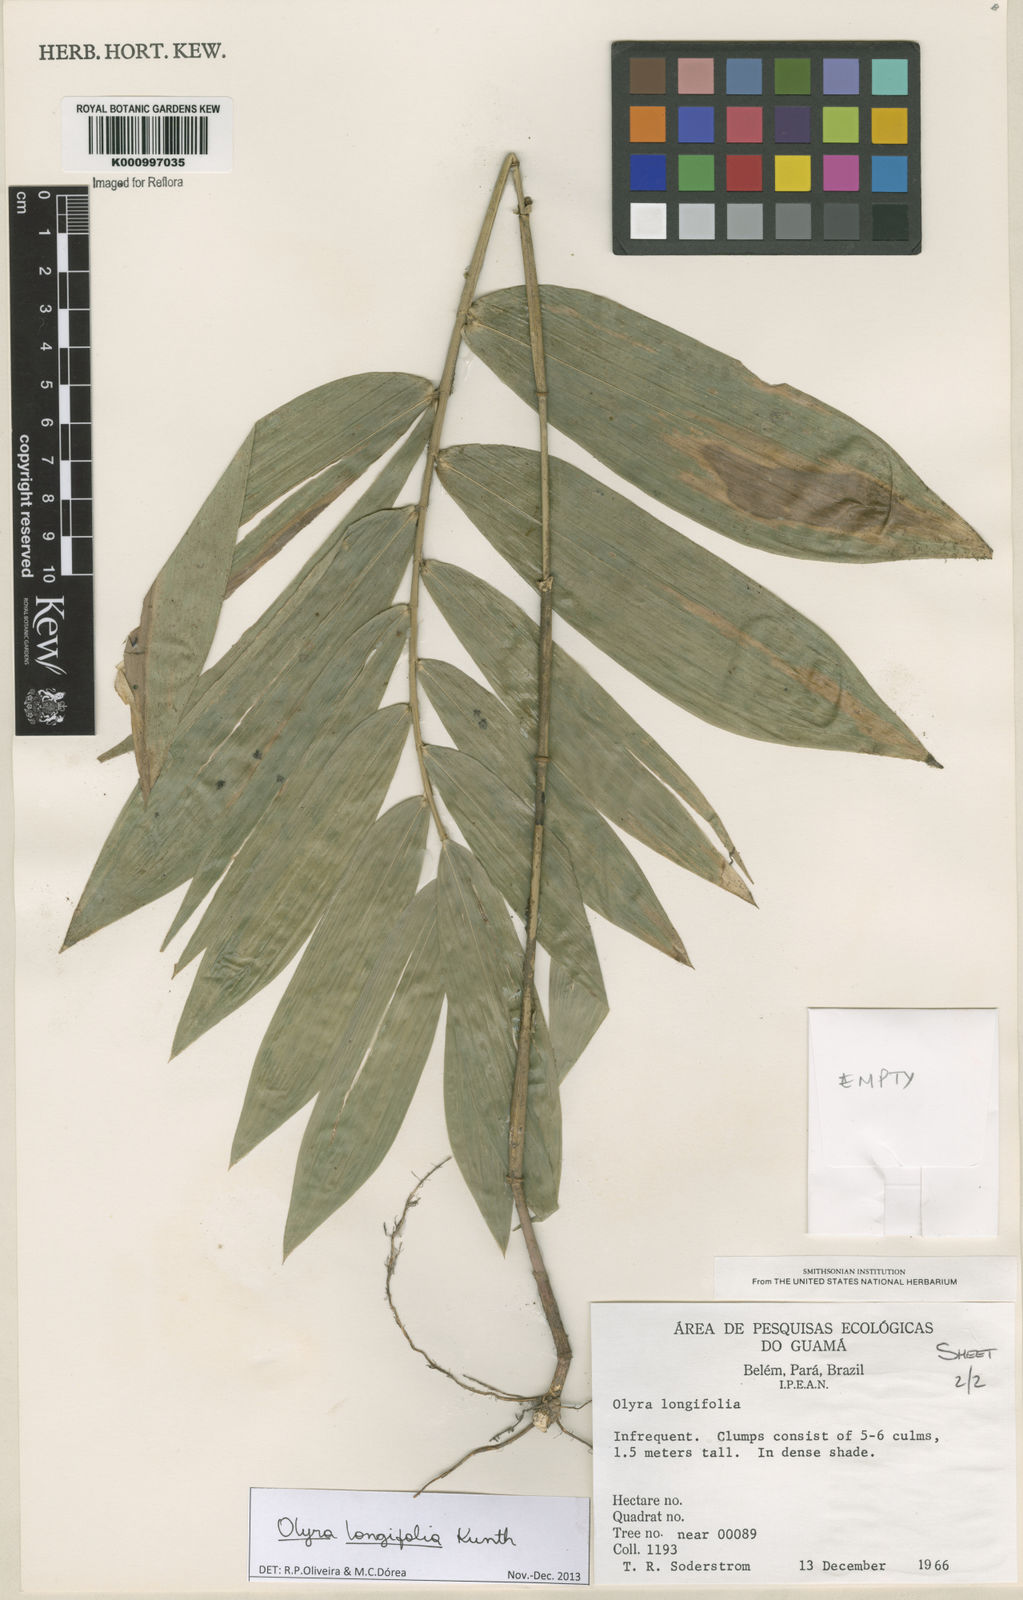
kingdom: Plantae
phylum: Tracheophyta
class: Liliopsida
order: Poales
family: Poaceae
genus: Olyra
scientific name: Olyra longifolia
